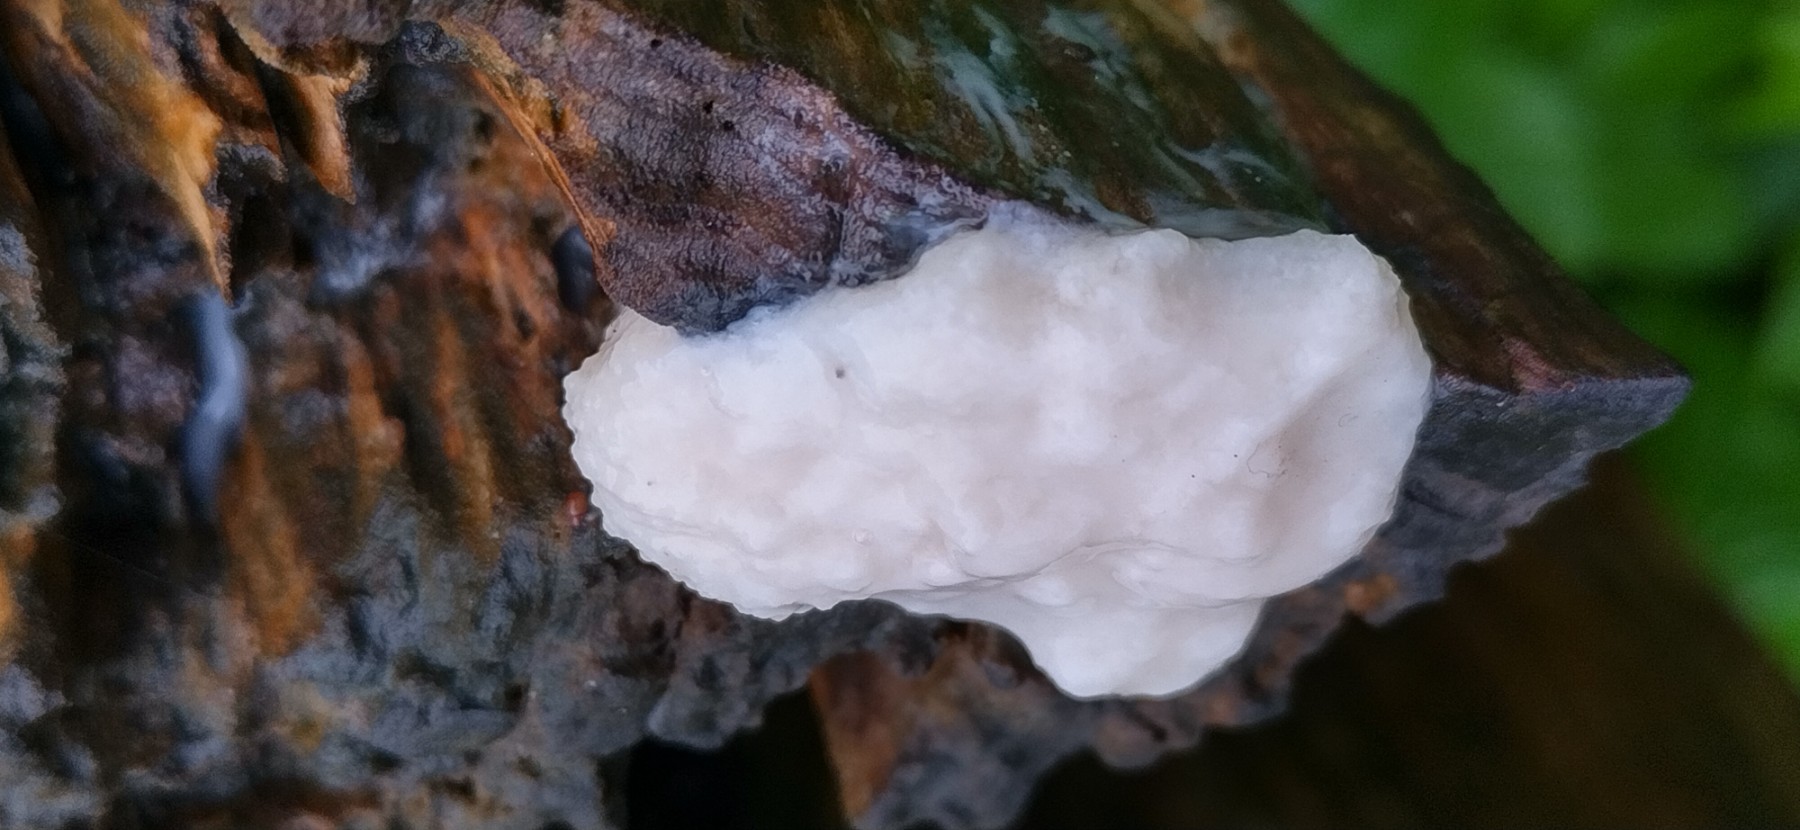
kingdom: Protozoa
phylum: Mycetozoa
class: Myxomycetes
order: Cribrariales
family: Tubiferaceae
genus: Reticularia
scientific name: Reticularia lycoperdon
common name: skinnende støvpude
